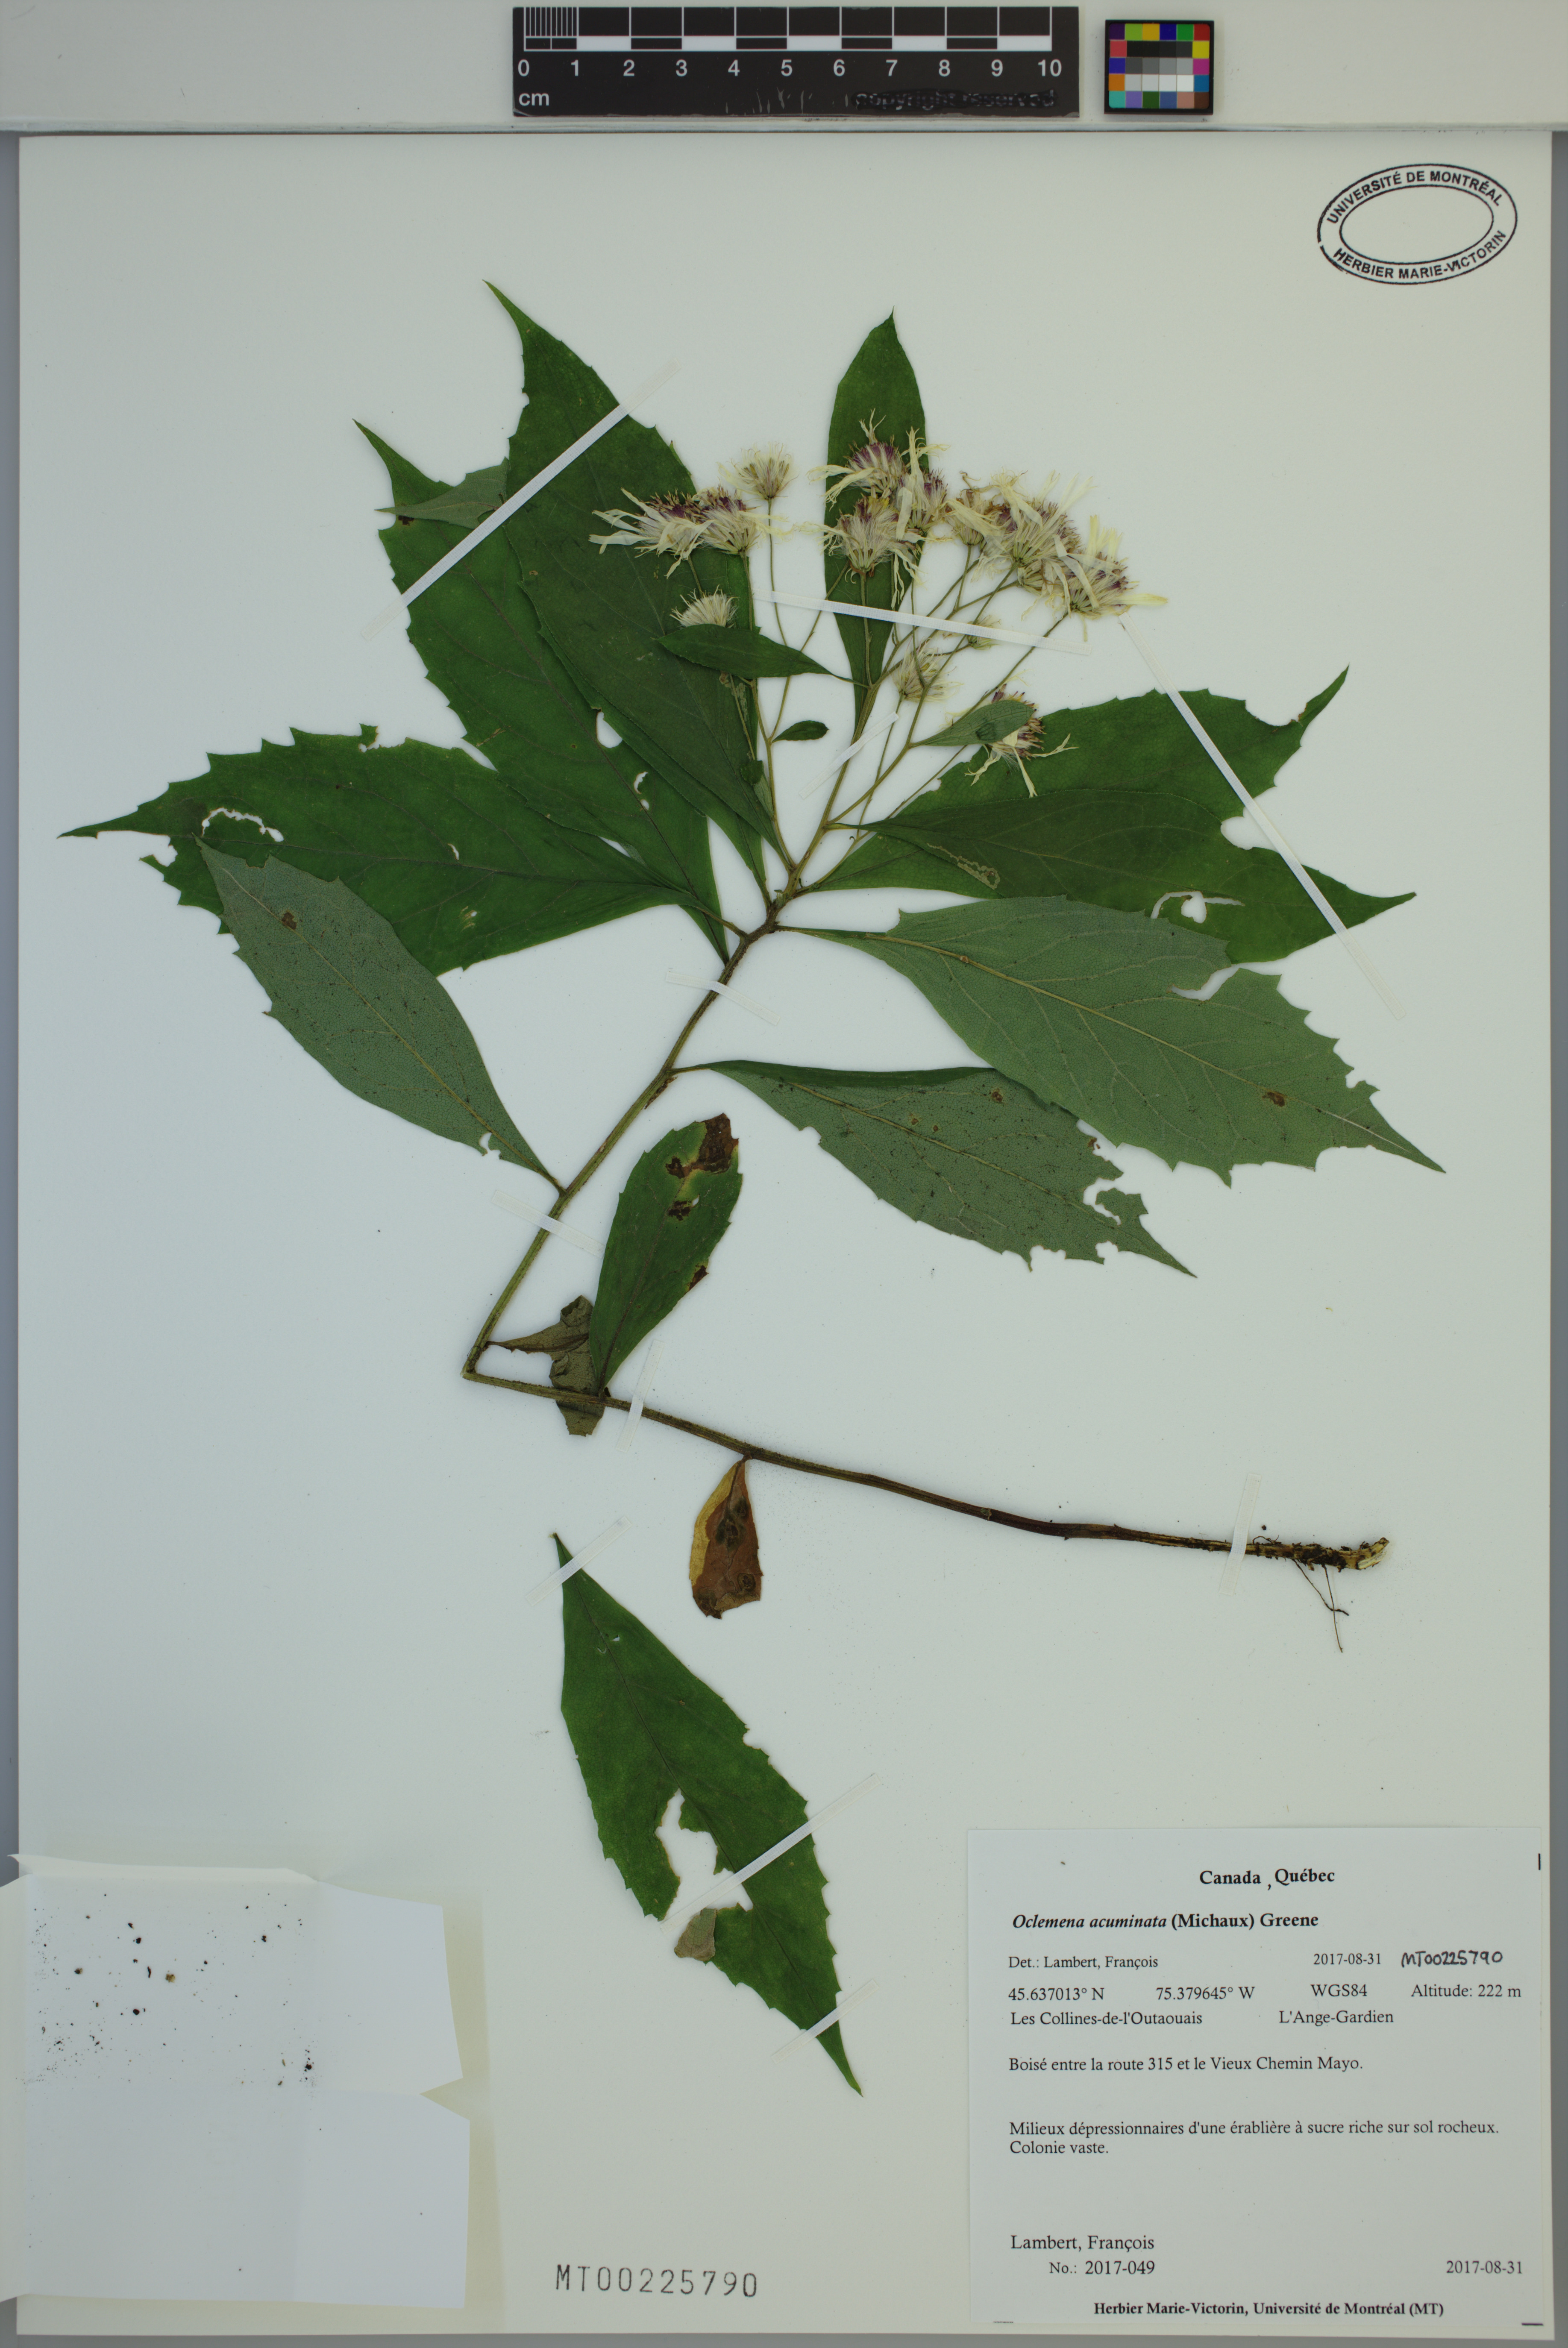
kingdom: Plantae
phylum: Tracheophyta
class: Magnoliopsida
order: Asterales
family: Asteraceae
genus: Oclemena
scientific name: Oclemena acuminata
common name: Mountain aster
